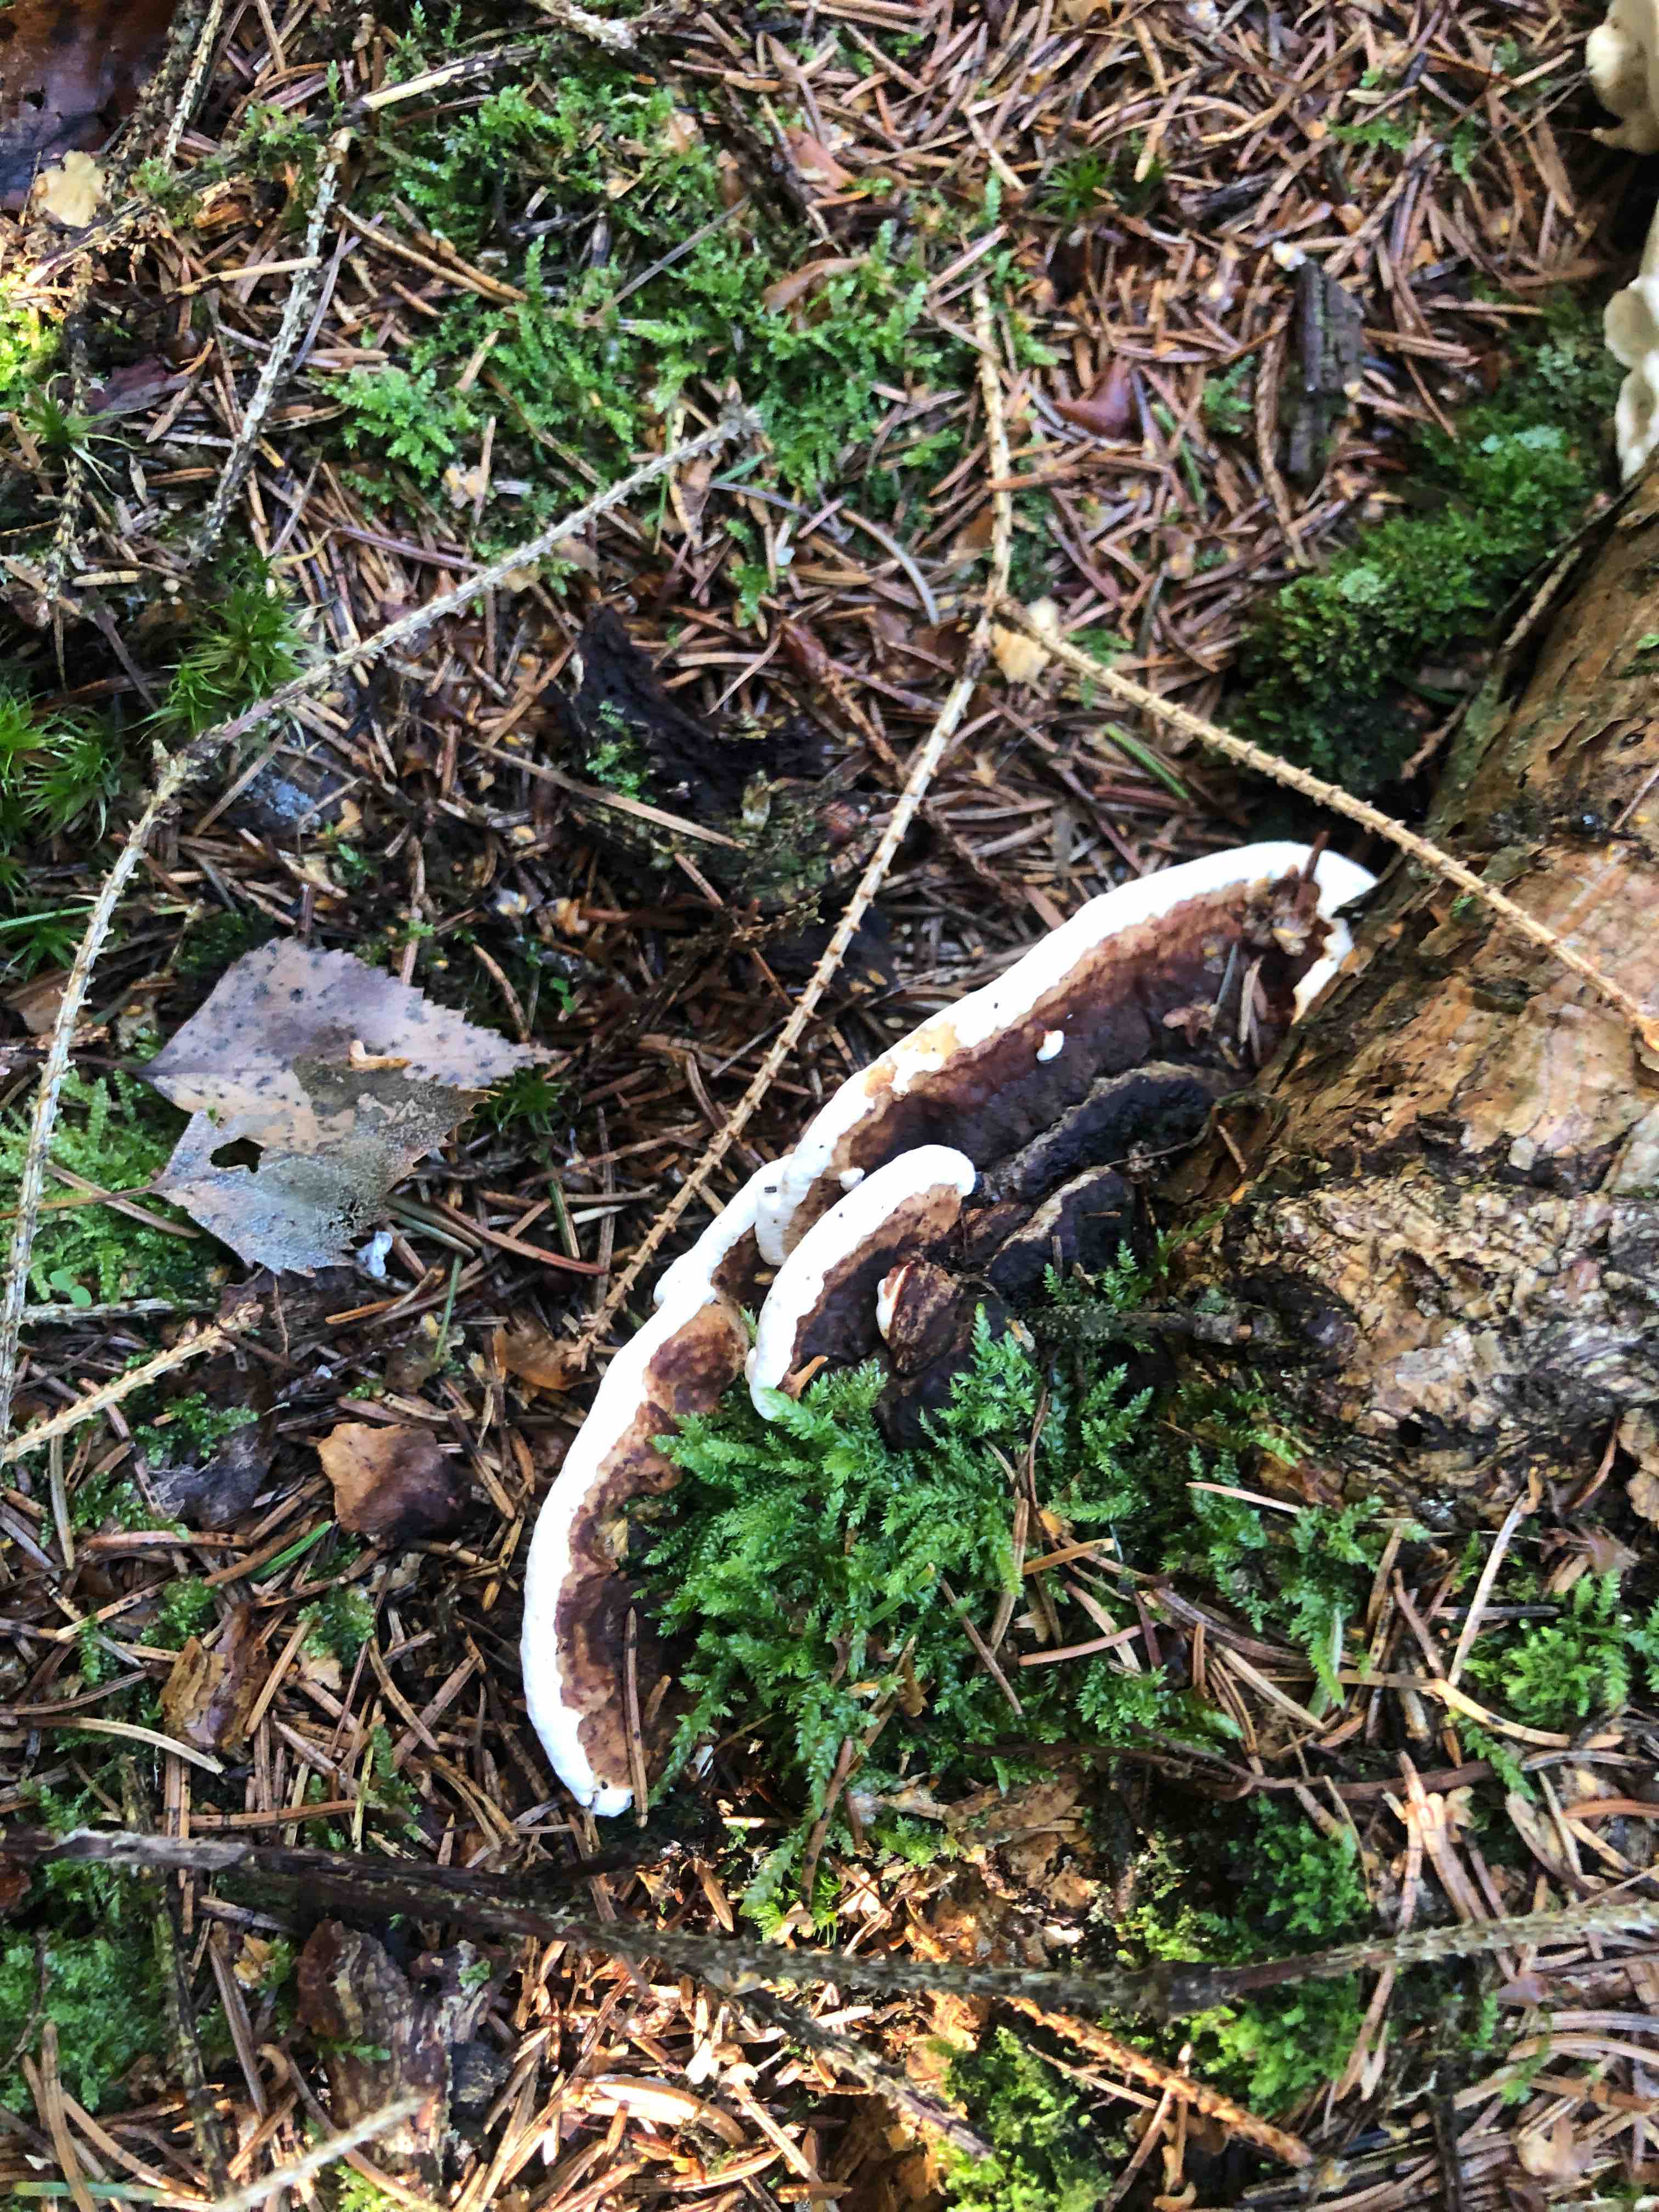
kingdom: Fungi
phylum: Basidiomycota
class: Agaricomycetes
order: Russulales
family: Bondarzewiaceae
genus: Heterobasidion
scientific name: Heterobasidion annosum
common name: almindelig rodfordærver
